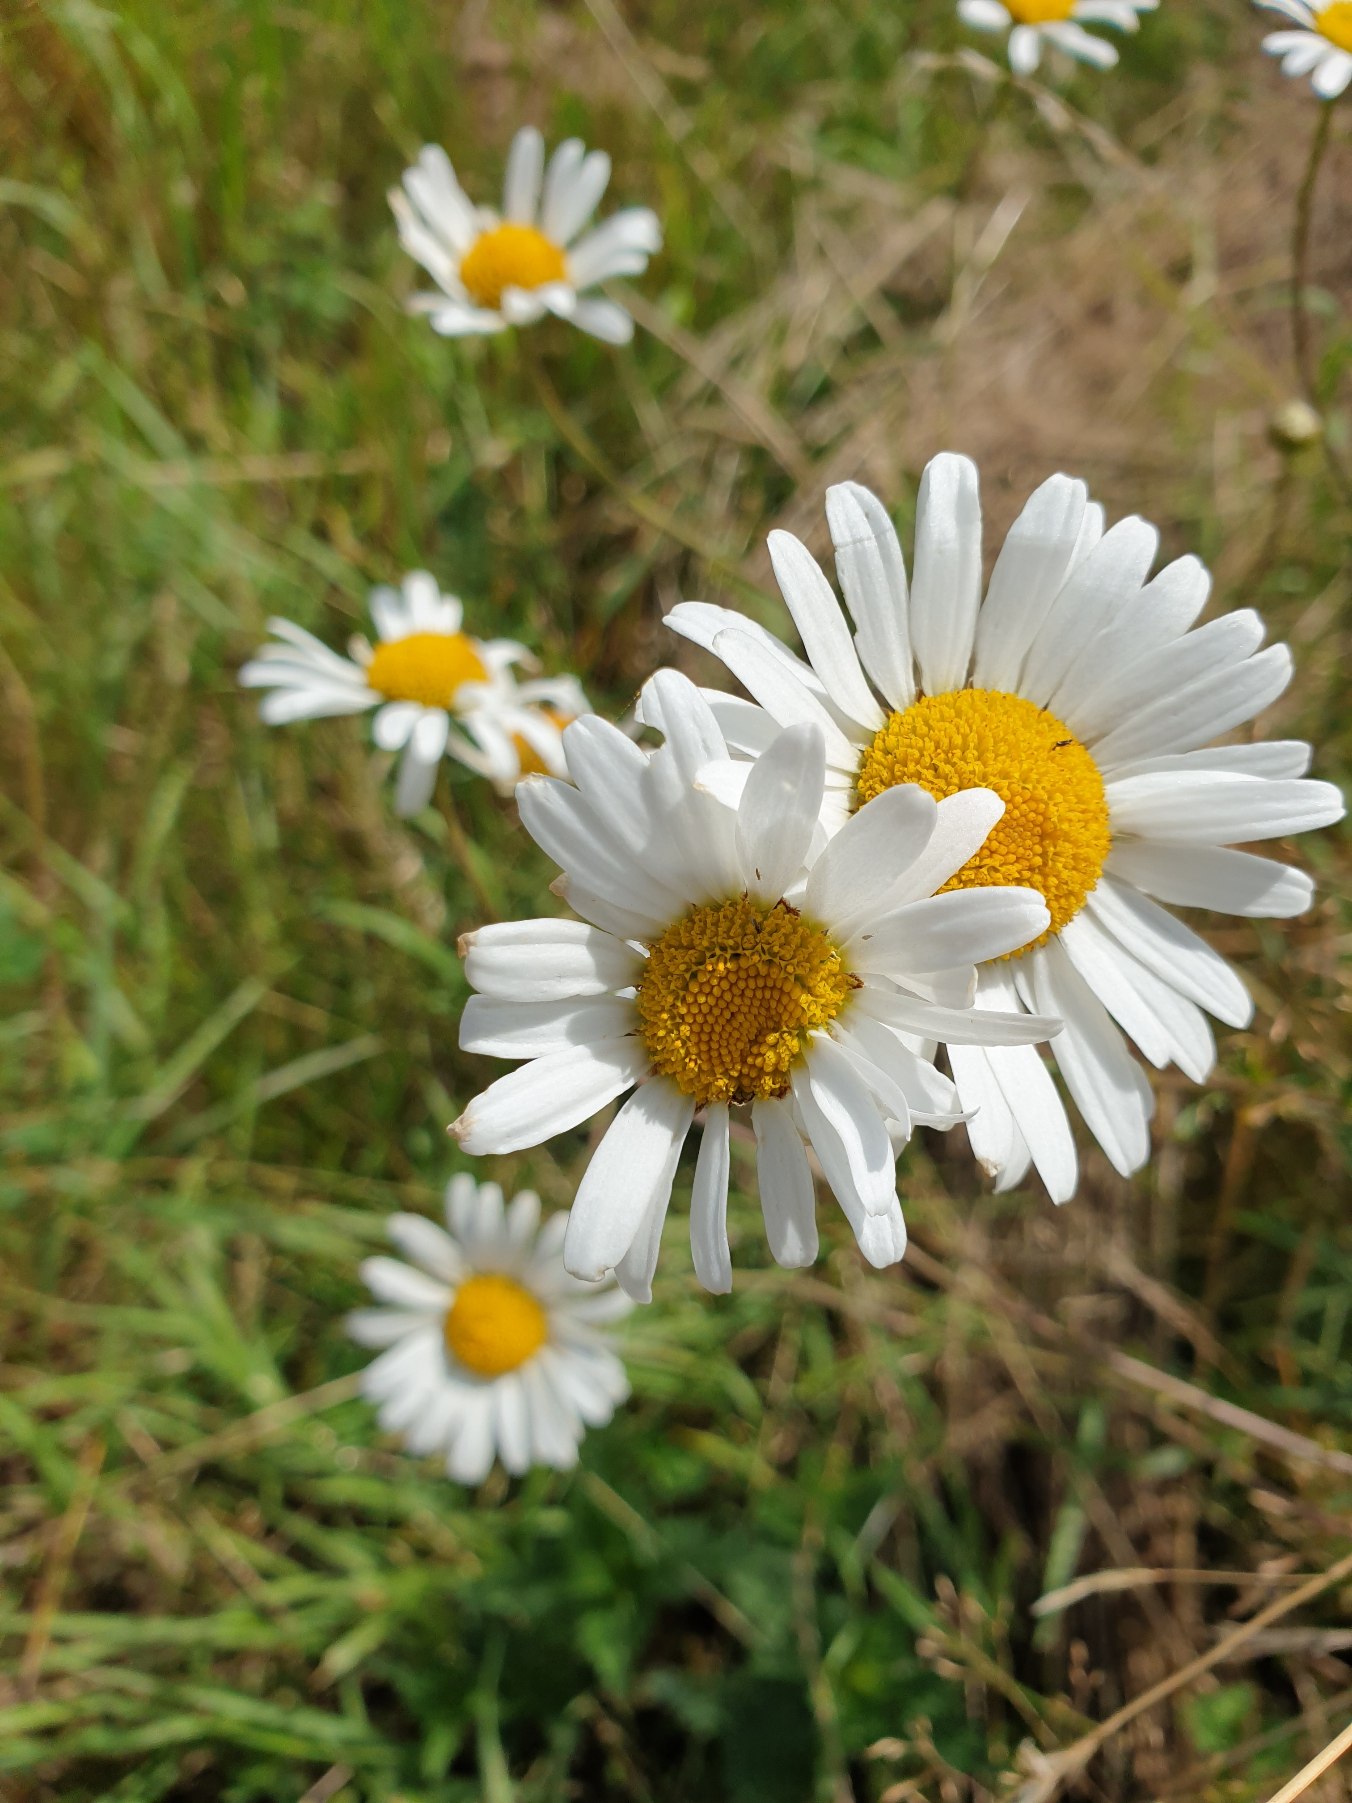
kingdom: Plantae
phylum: Tracheophyta
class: Magnoliopsida
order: Asterales
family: Asteraceae
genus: Leucanthemum
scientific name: Leucanthemum vulgare
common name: Hvid okseøje
